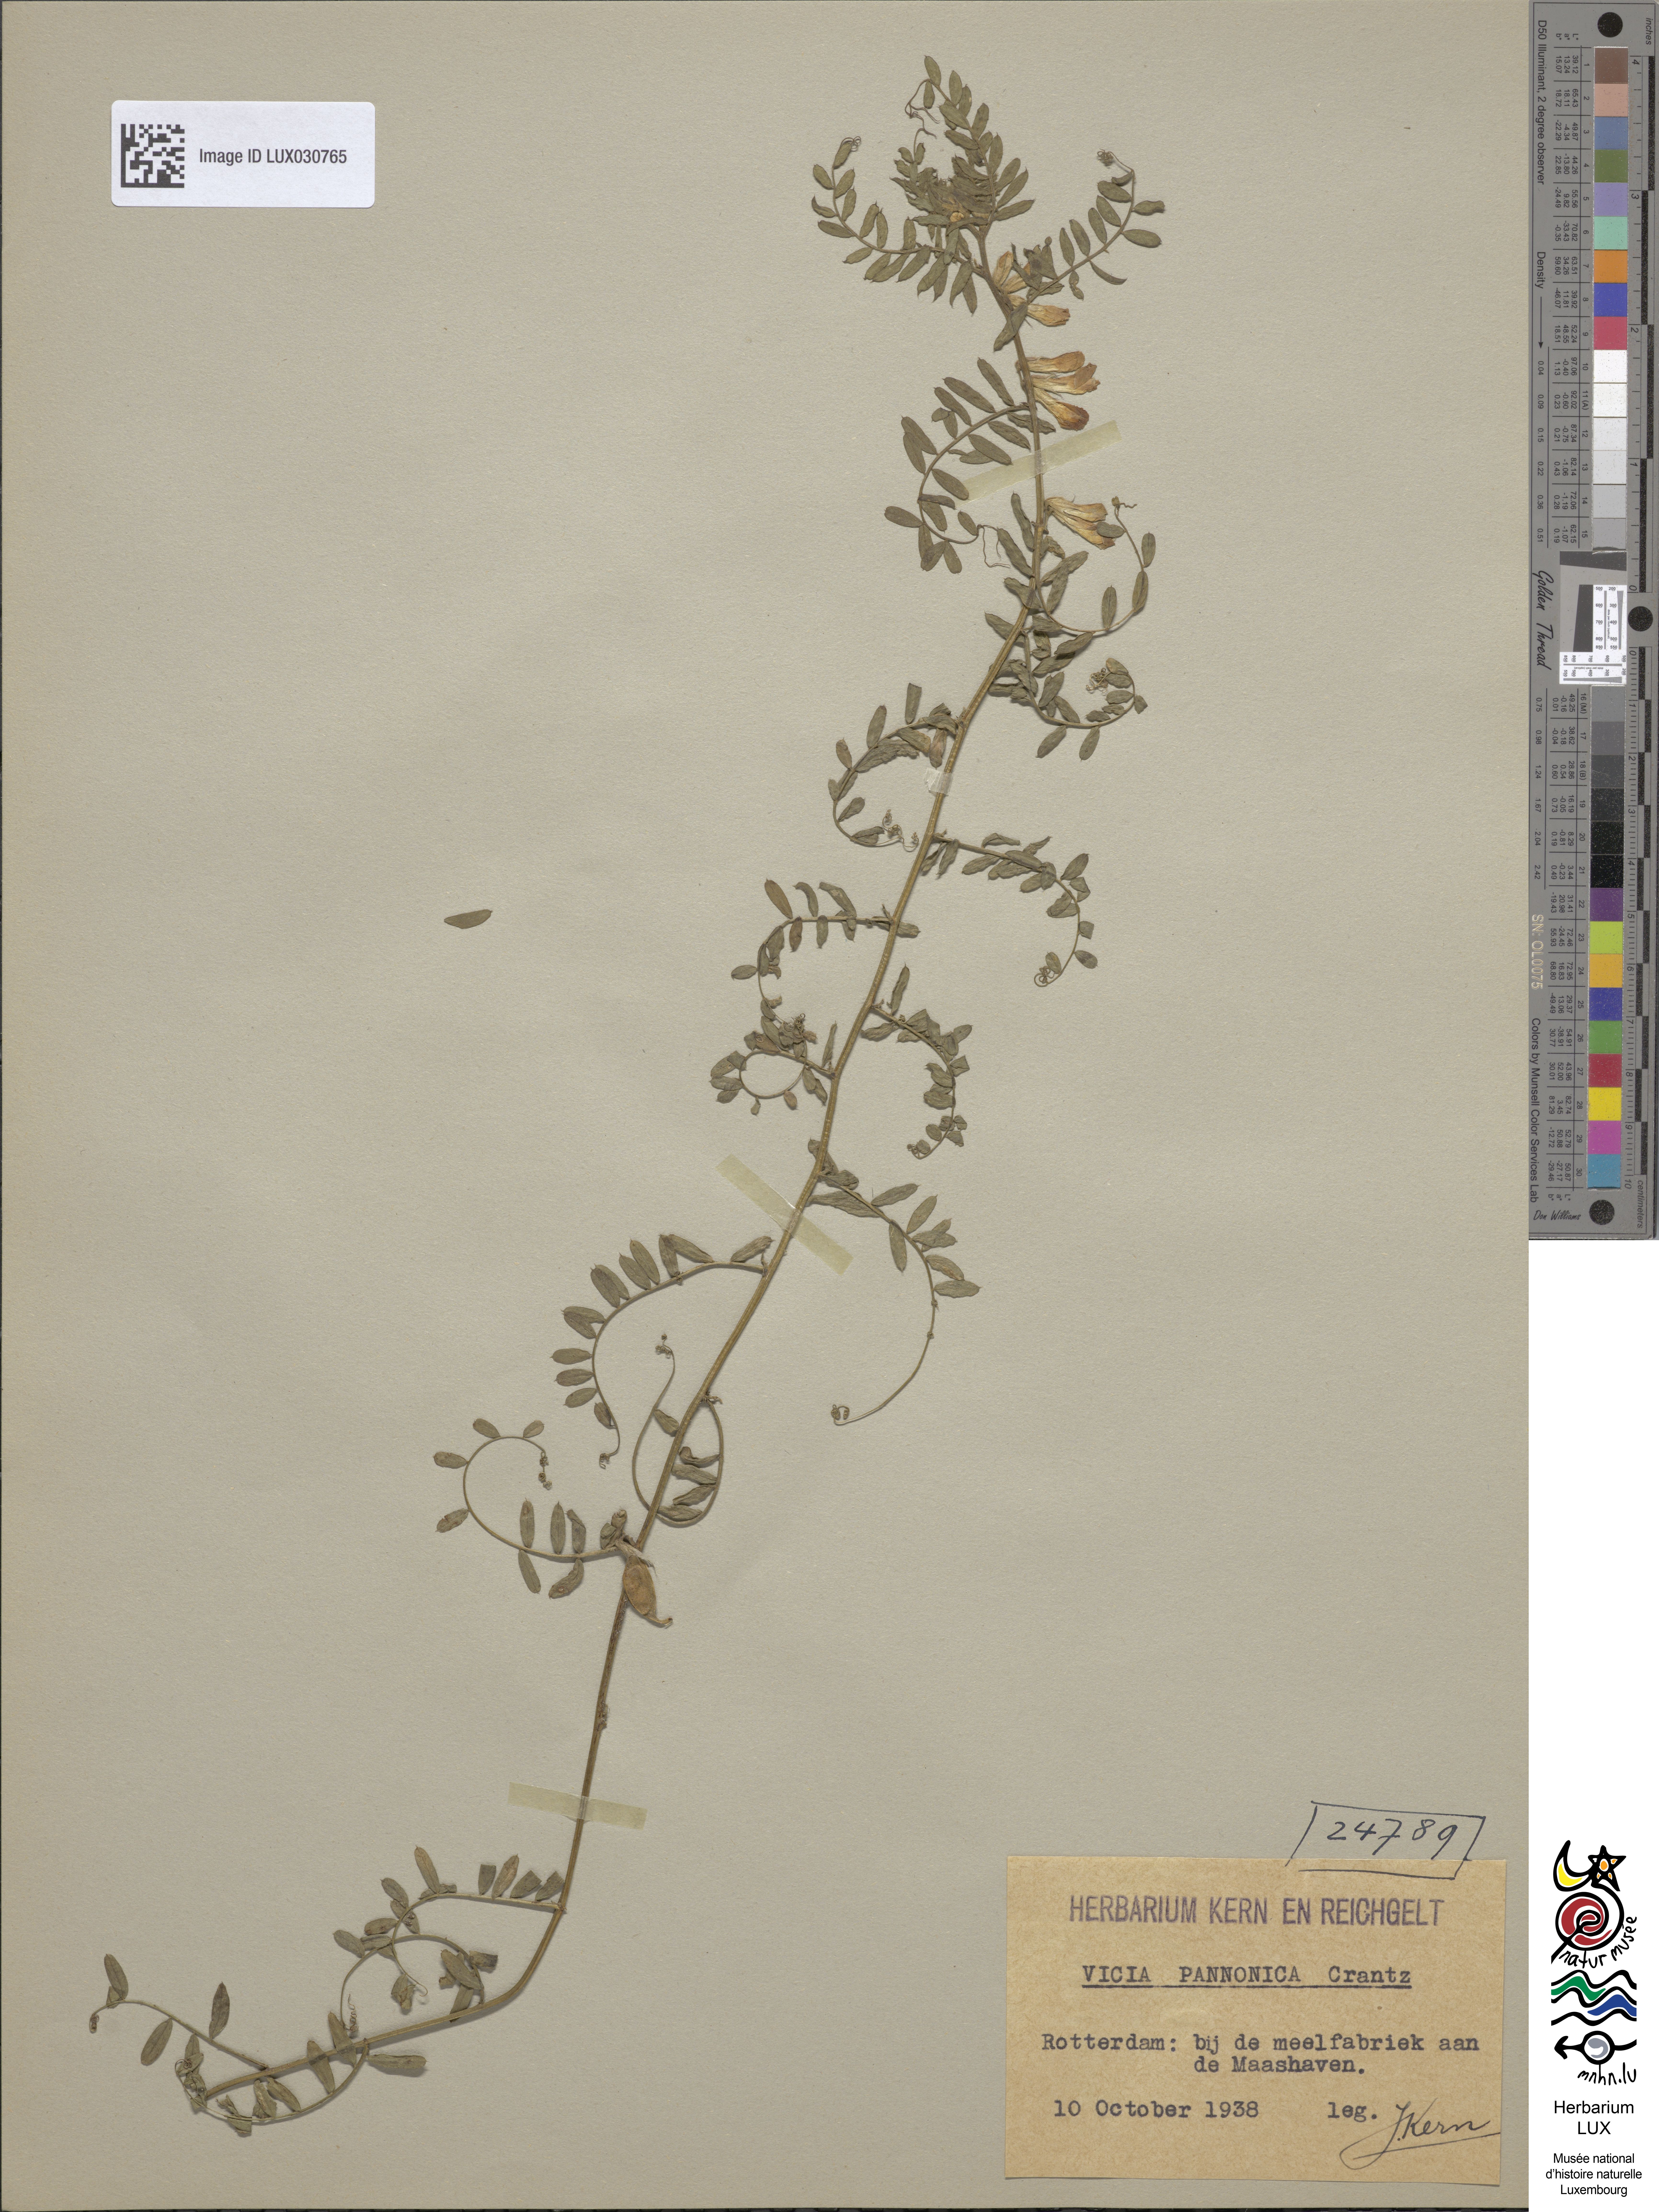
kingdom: Plantae
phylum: Tracheophyta
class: Magnoliopsida
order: Fabales
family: Fabaceae
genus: Vicia
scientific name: Vicia pannonica
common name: Hungarian vetch
